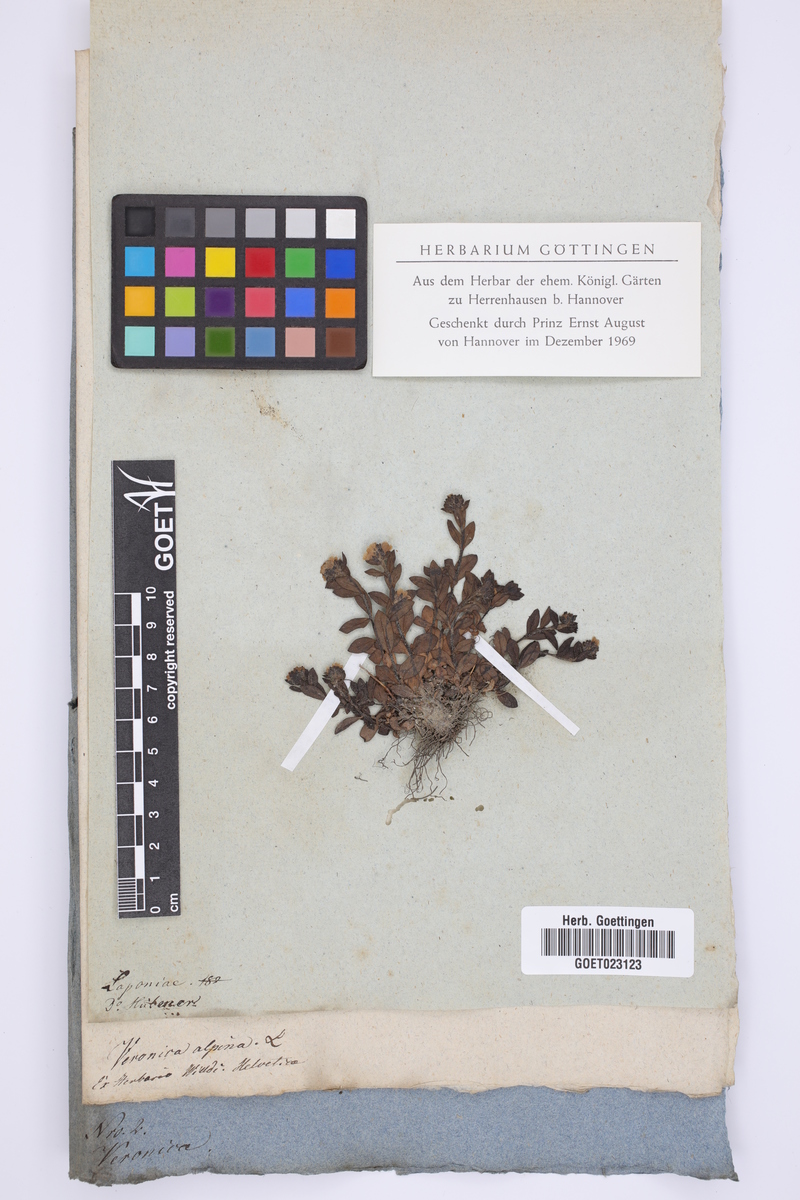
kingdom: Plantae
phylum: Tracheophyta
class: Magnoliopsida
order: Lamiales
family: Plantaginaceae
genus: Veronica
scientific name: Veronica alpina
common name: Alpine speedwell
